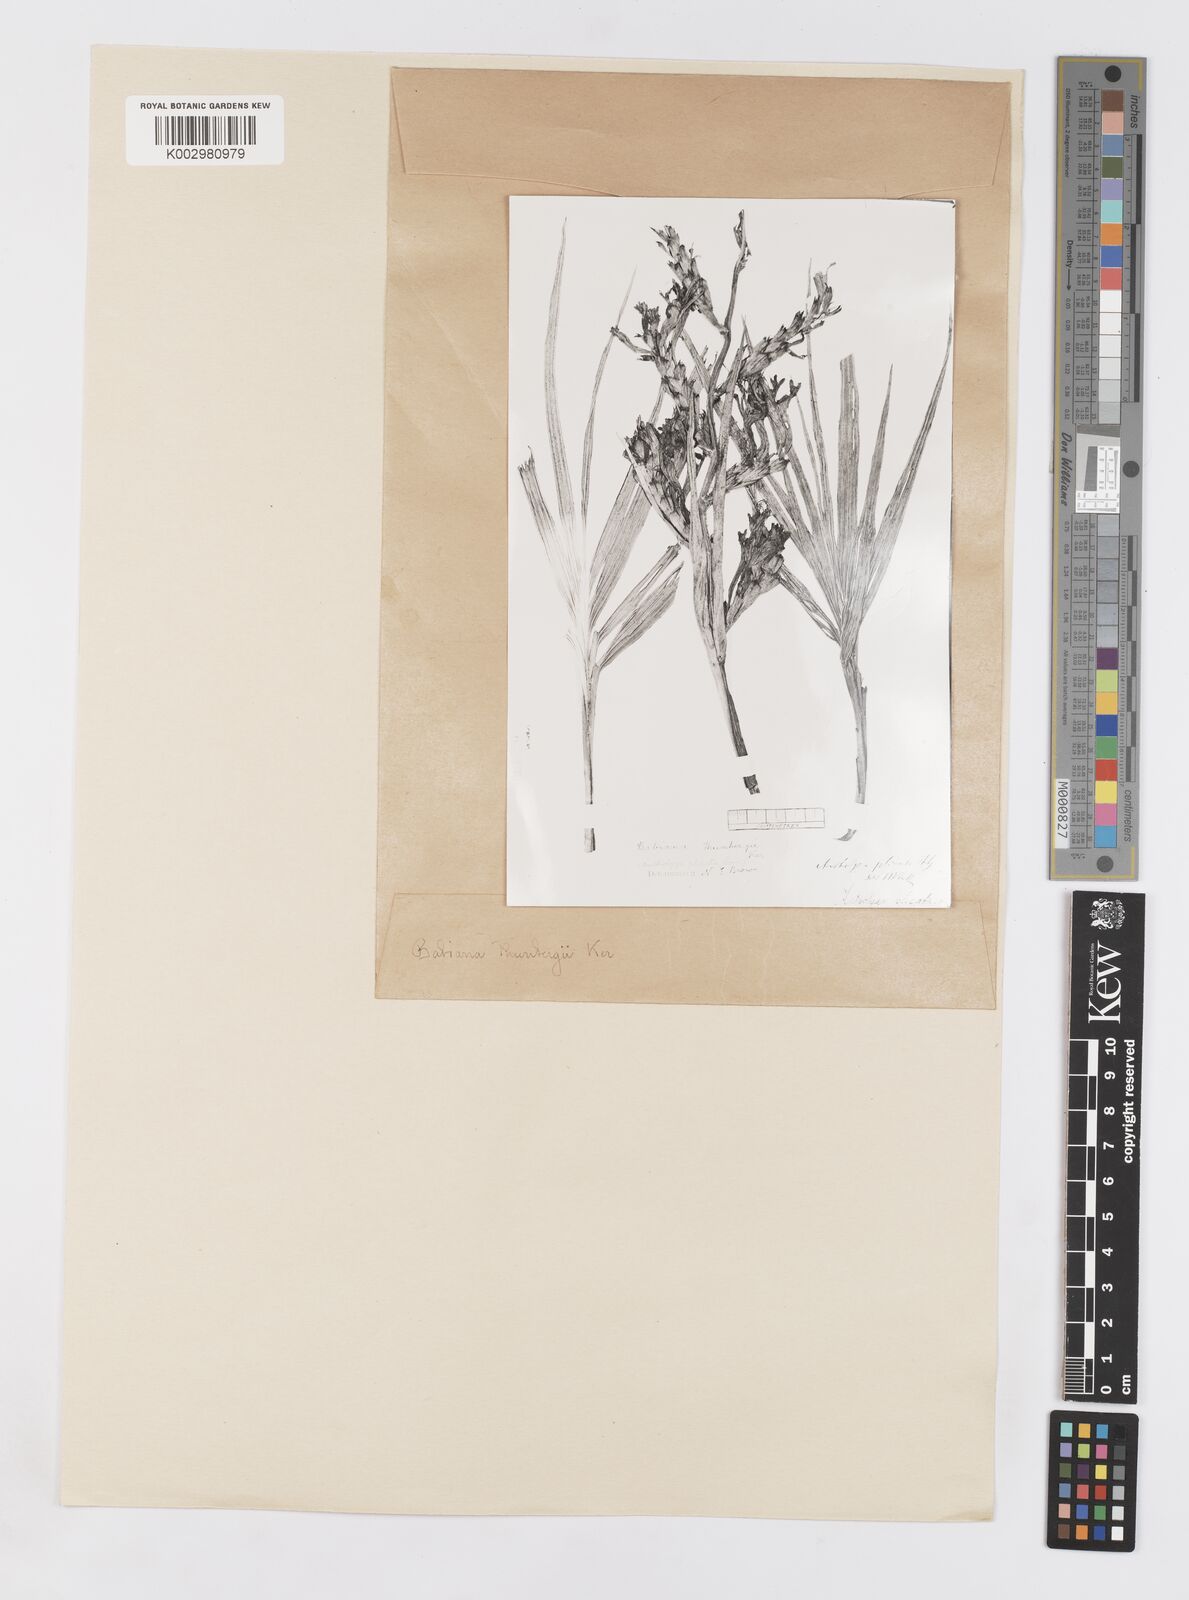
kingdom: Plantae
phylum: Tracheophyta
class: Liliopsida
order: Asparagales
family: Iridaceae
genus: Babiana
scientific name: Babiana
